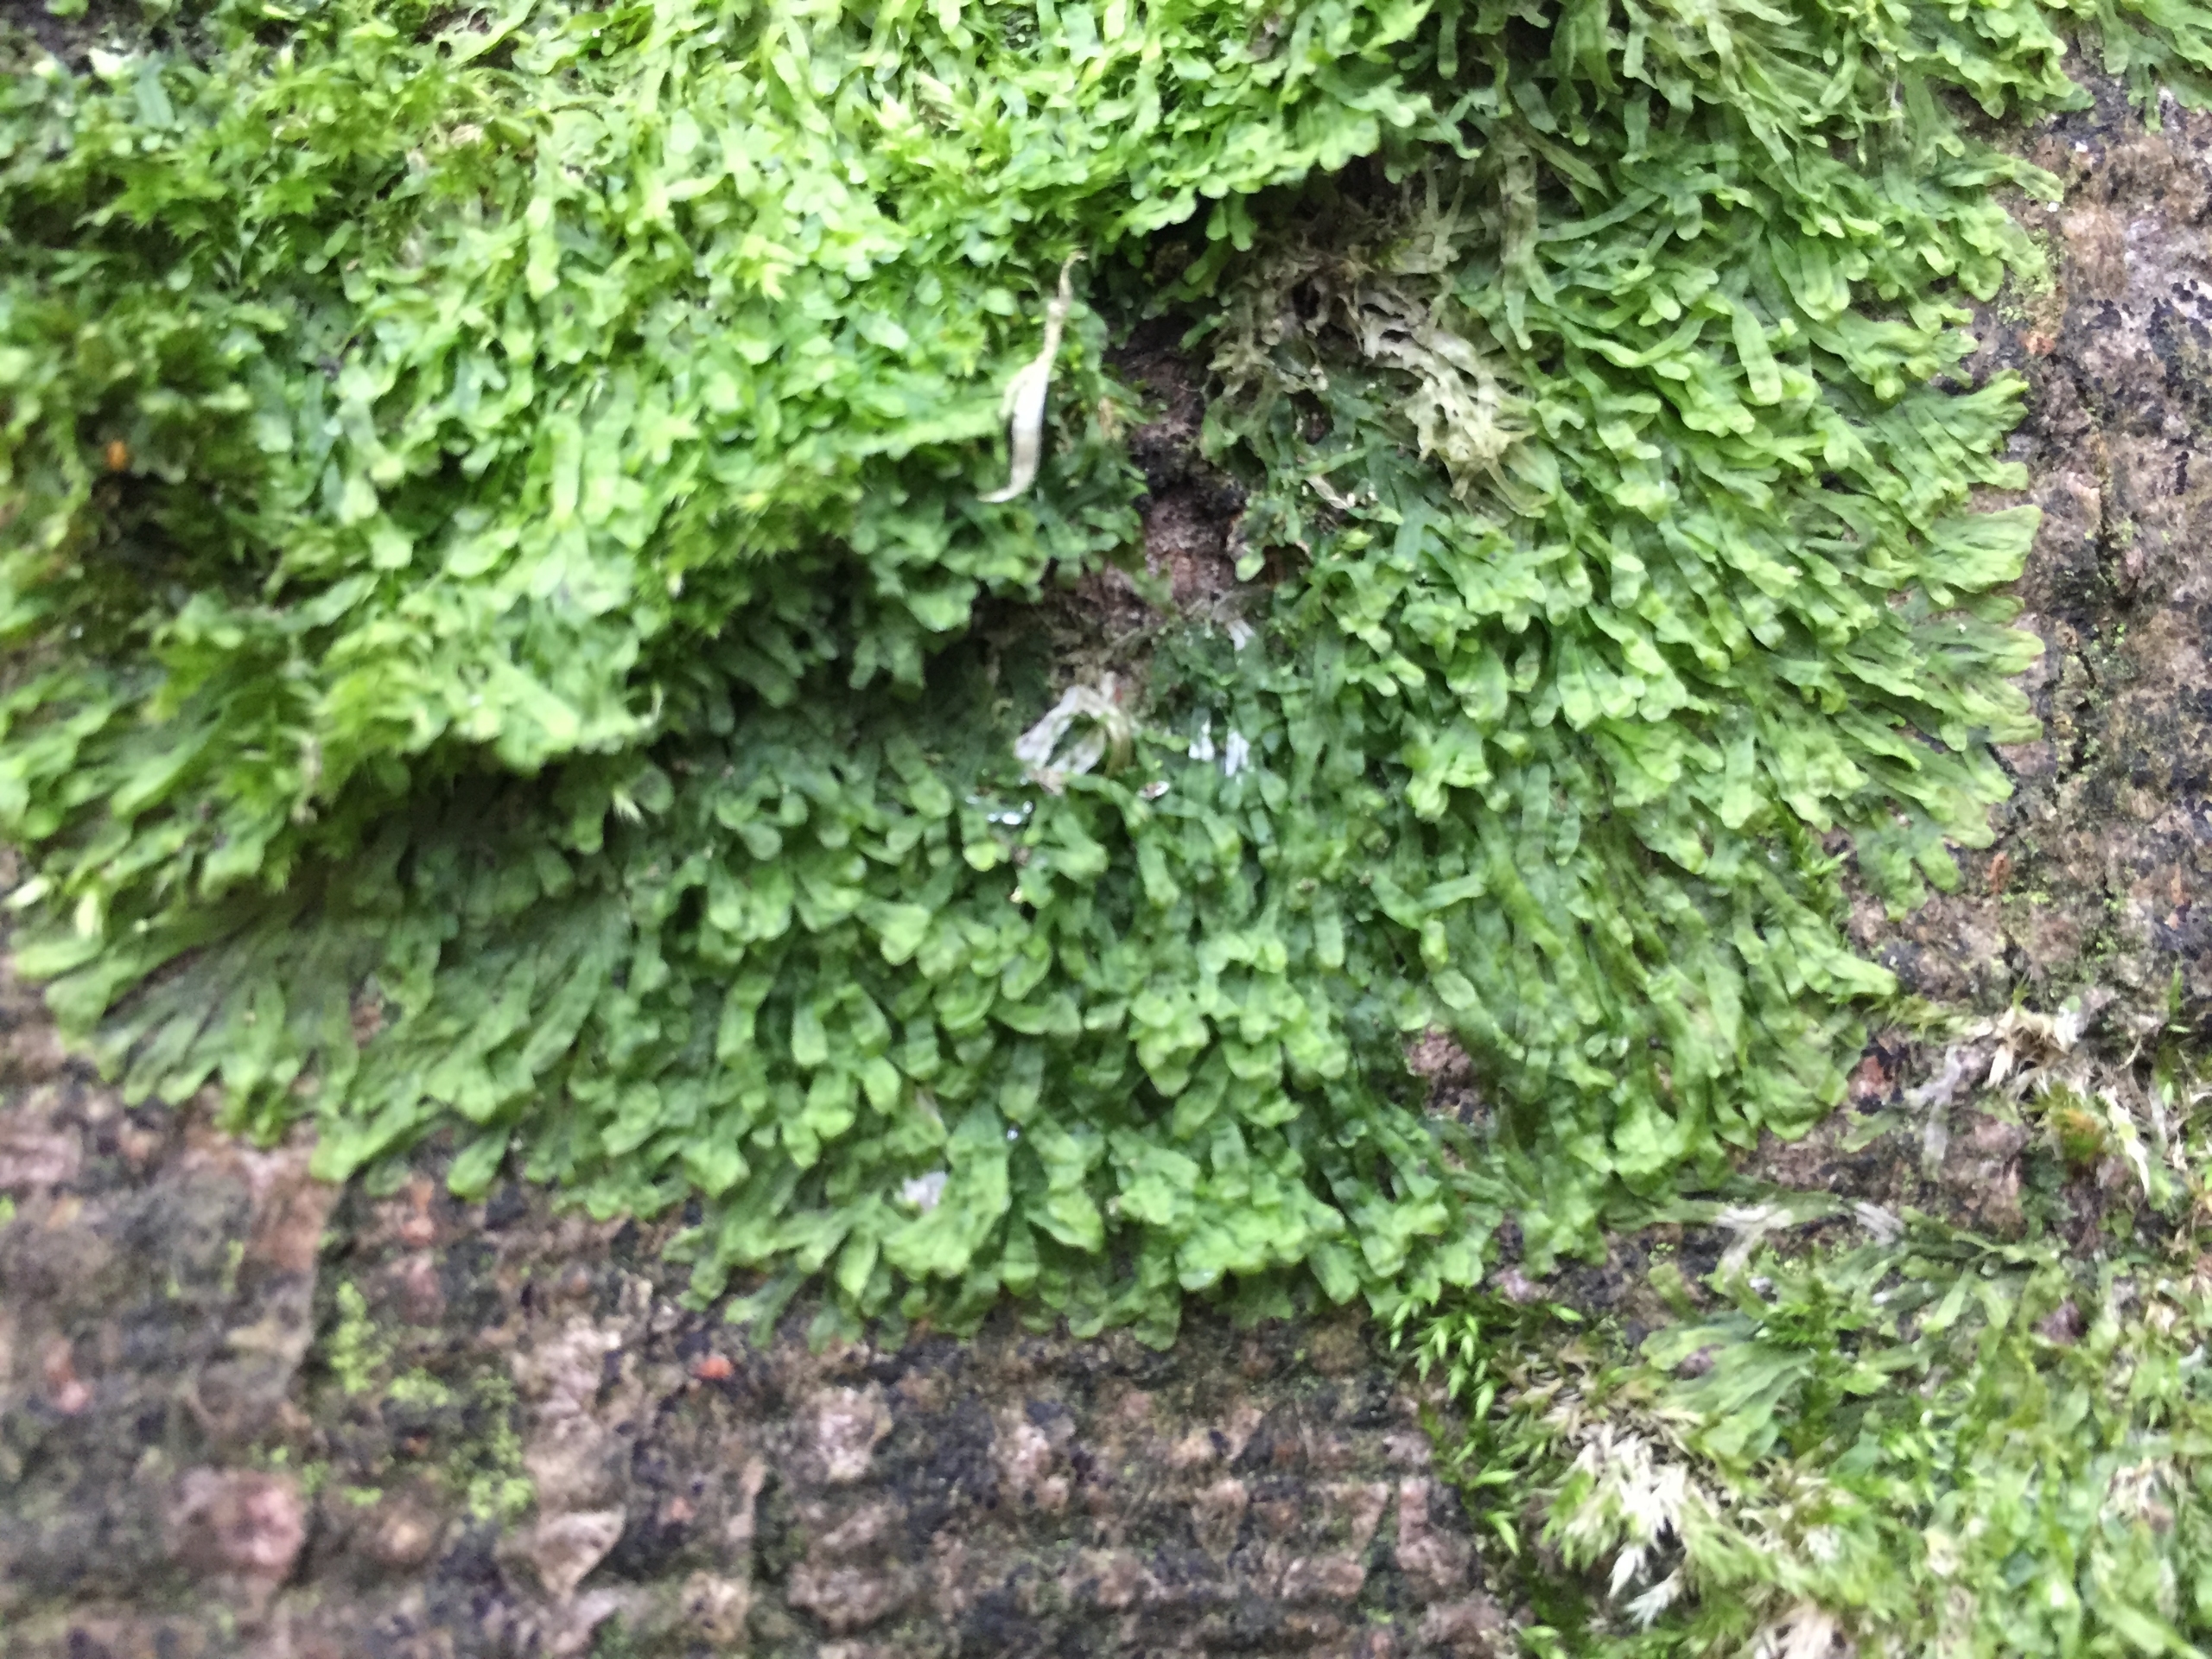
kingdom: Plantae
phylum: Marchantiophyta
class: Jungermanniopsida
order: Metzgeriales
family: Metzgeriaceae
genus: Metzgeria
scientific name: Metzgeria furcata
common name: Almindelig gaffelløv
